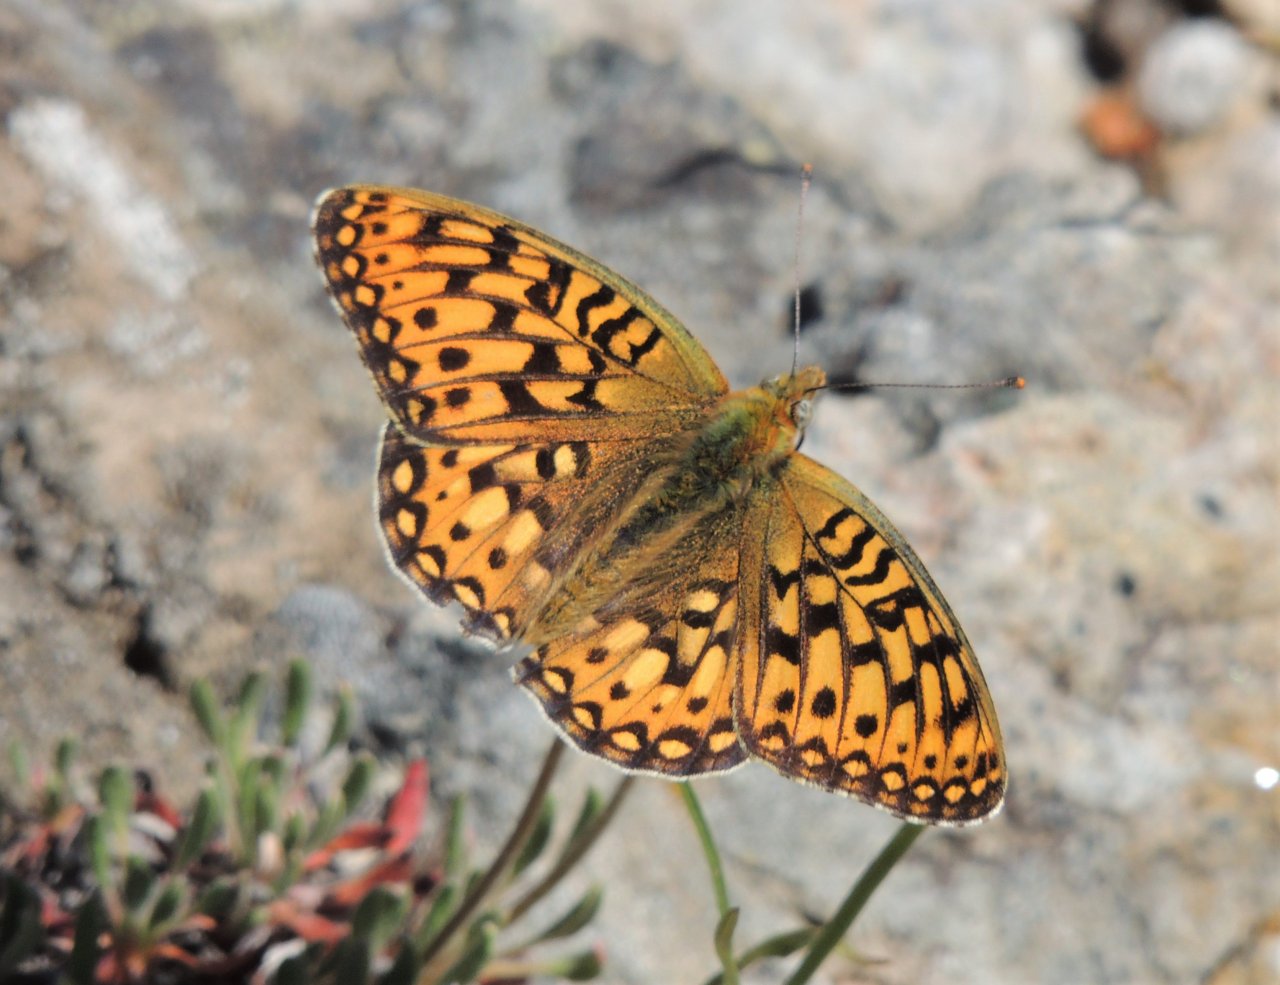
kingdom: Animalia
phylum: Arthropoda
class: Insecta
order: Lepidoptera
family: Nymphalidae
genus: Speyeria
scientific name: Speyeria mormonia
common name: Mormon Fritillary
